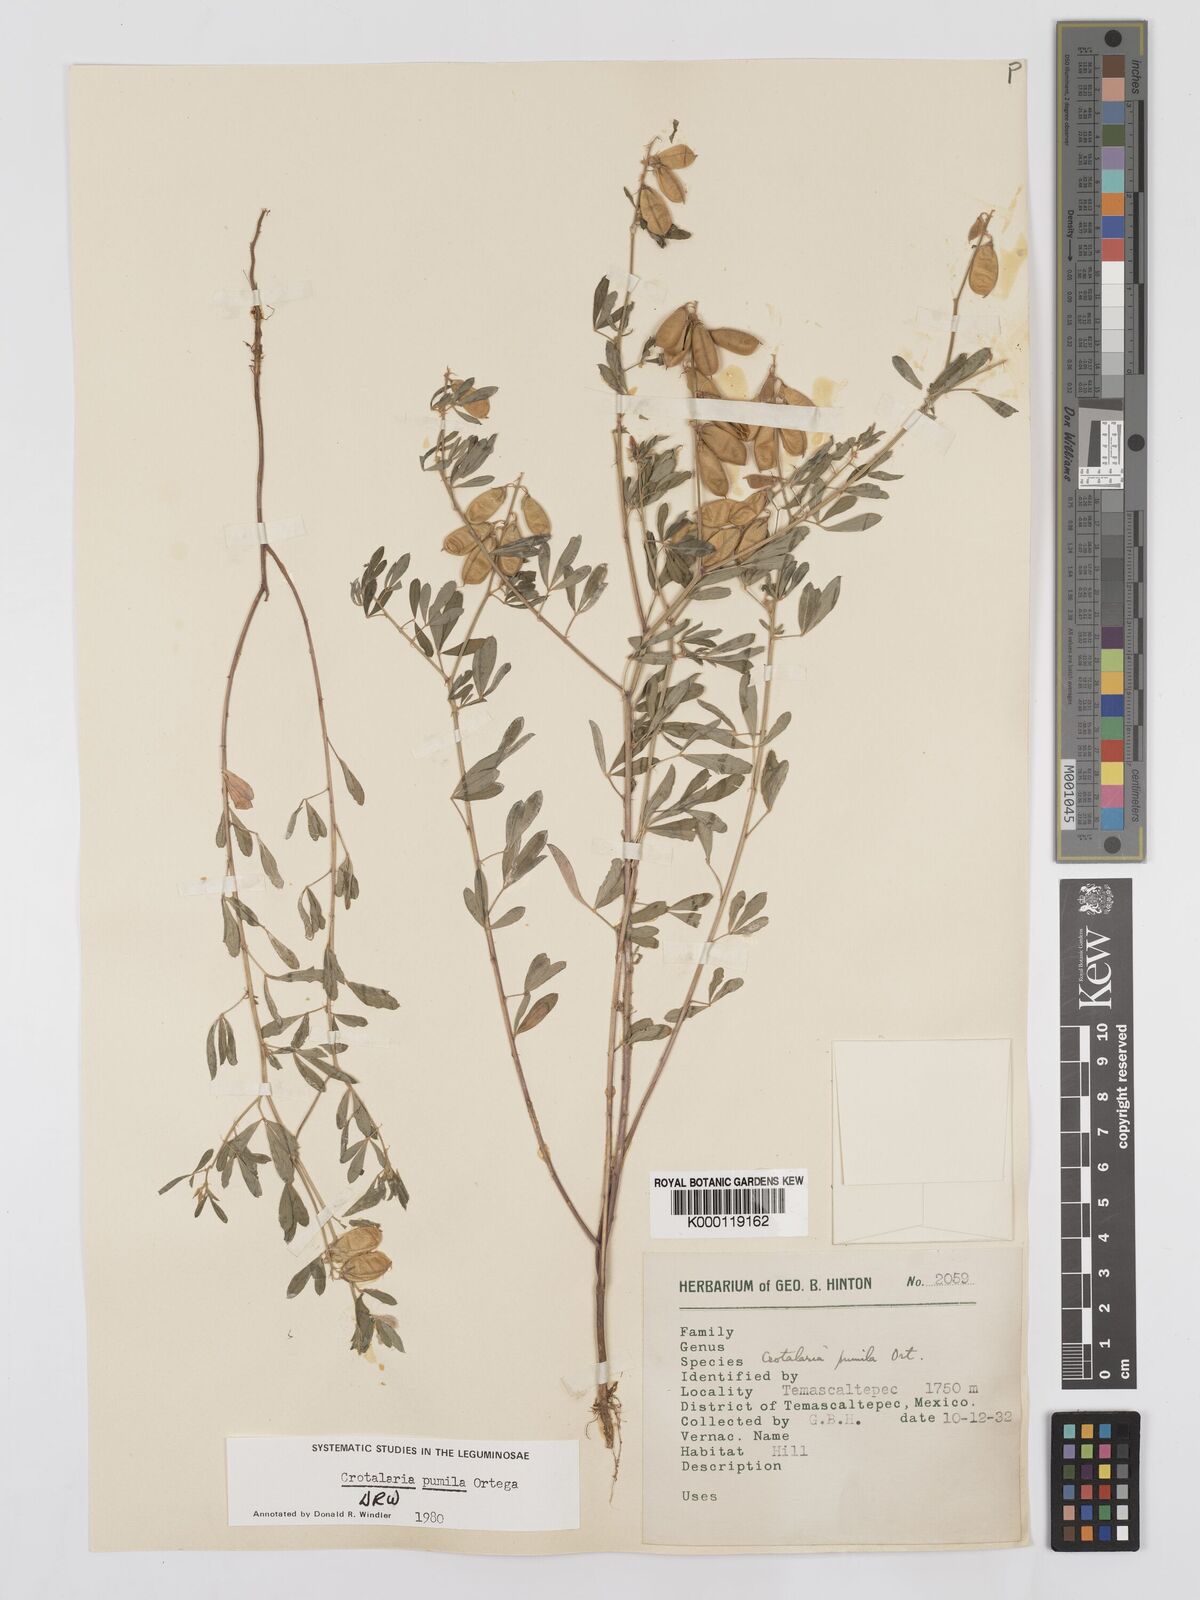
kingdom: Plantae
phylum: Tracheophyta
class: Magnoliopsida
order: Fabales
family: Fabaceae
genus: Crotalaria
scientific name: Crotalaria pumila
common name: Low rattlebox
